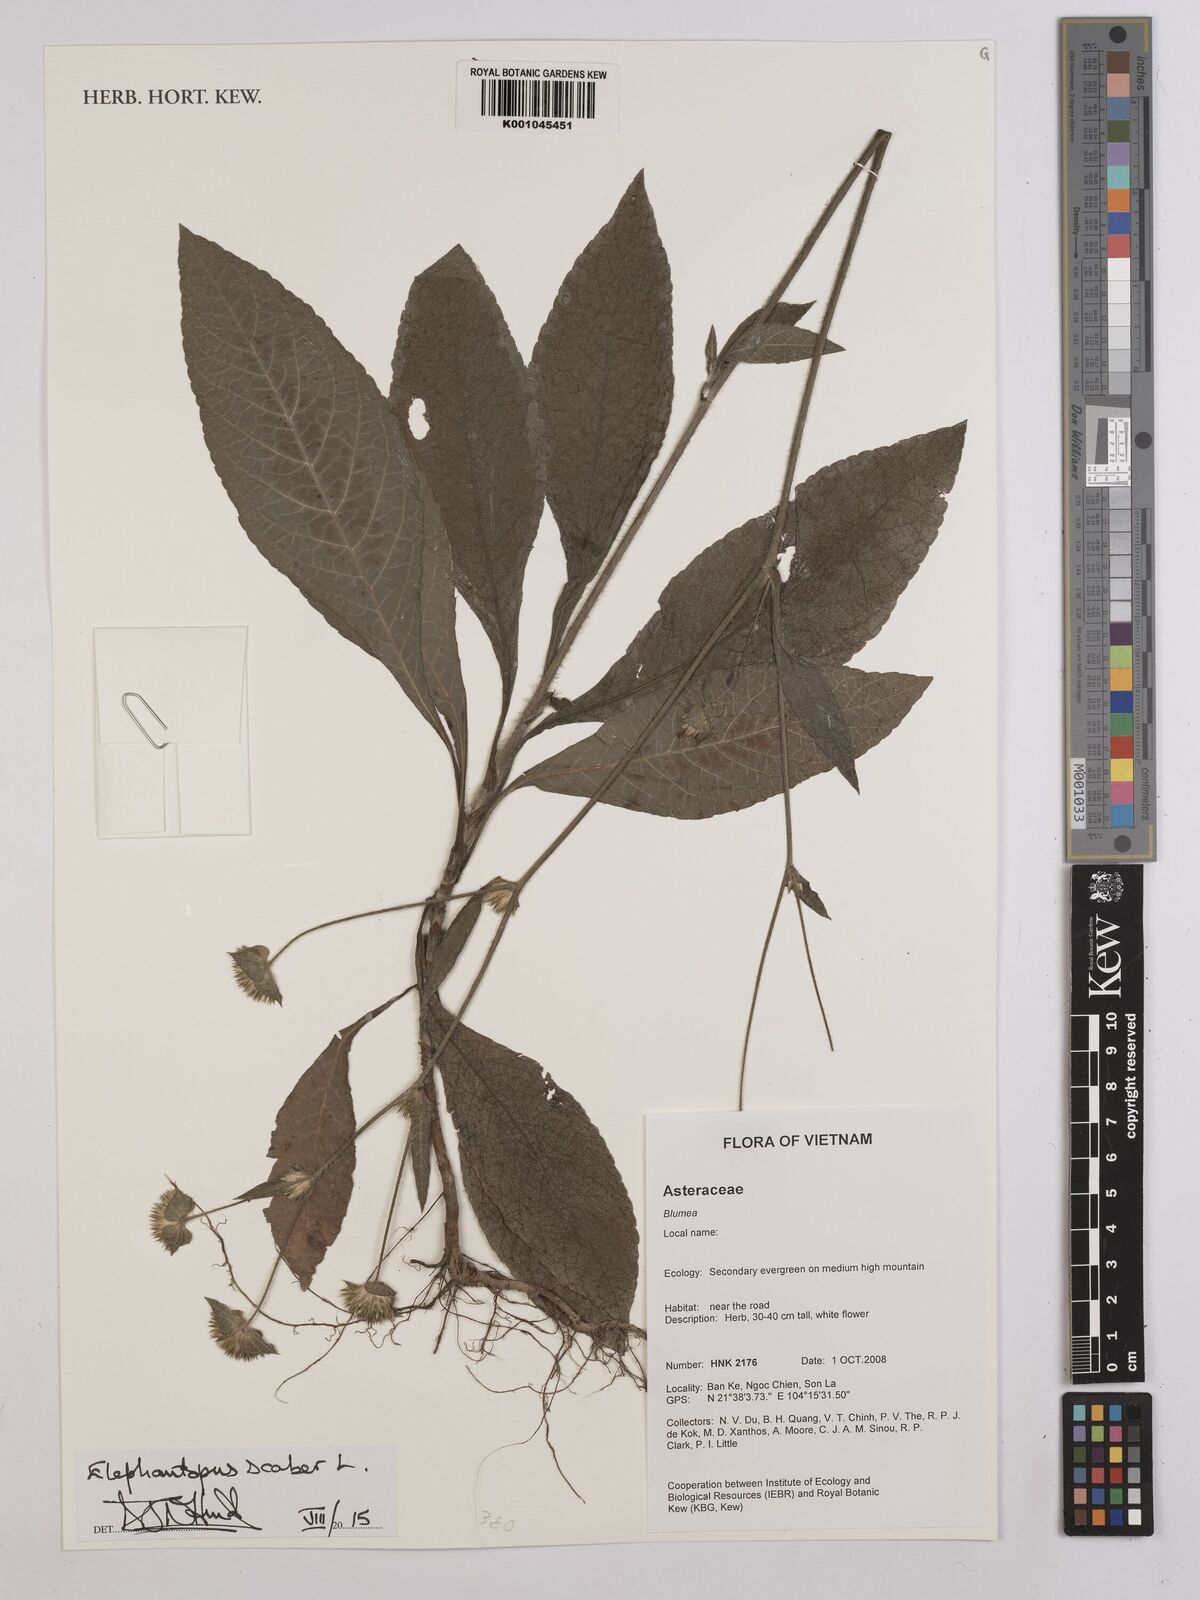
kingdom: Plantae
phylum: Tracheophyta
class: Magnoliopsida
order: Asterales
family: Asteraceae
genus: Elephantopus
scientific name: Elephantopus scaber
